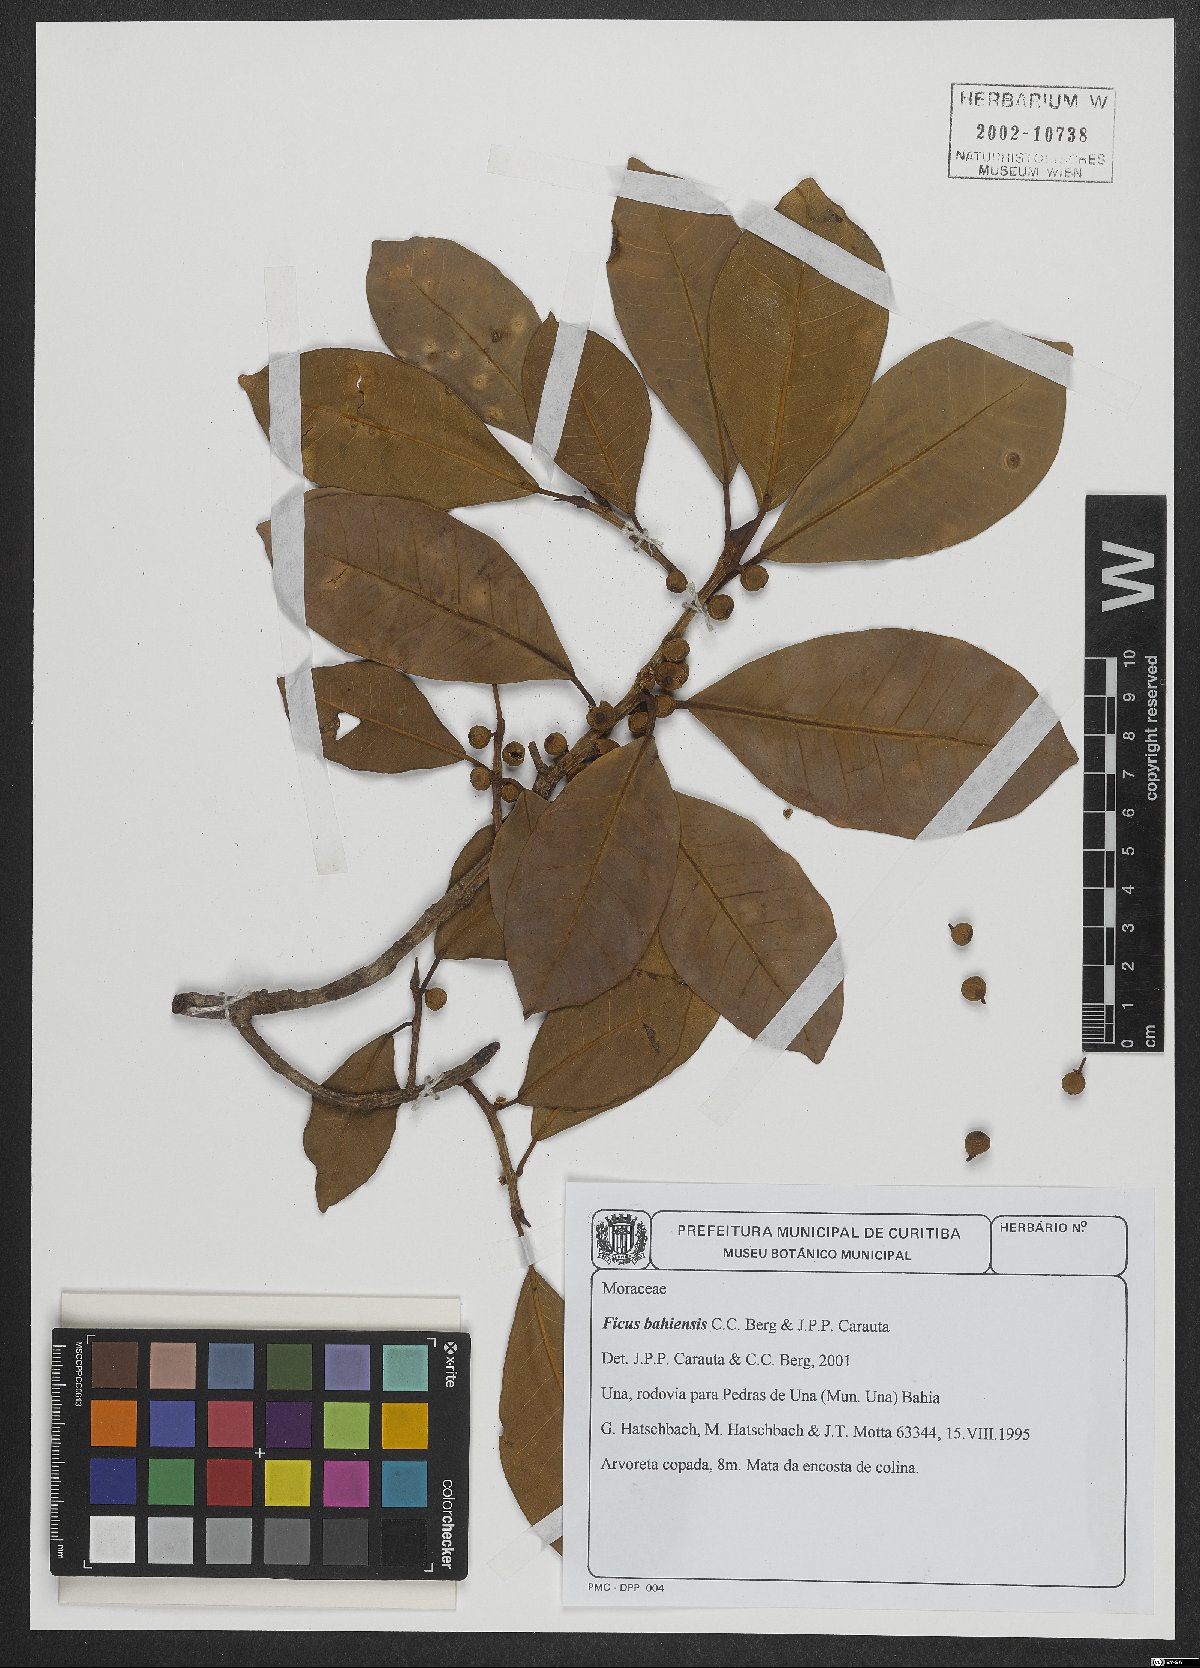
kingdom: Plantae
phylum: Tracheophyta
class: Magnoliopsida
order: Rosales
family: Moraceae
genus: Ficus
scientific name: Ficus bahiensis
